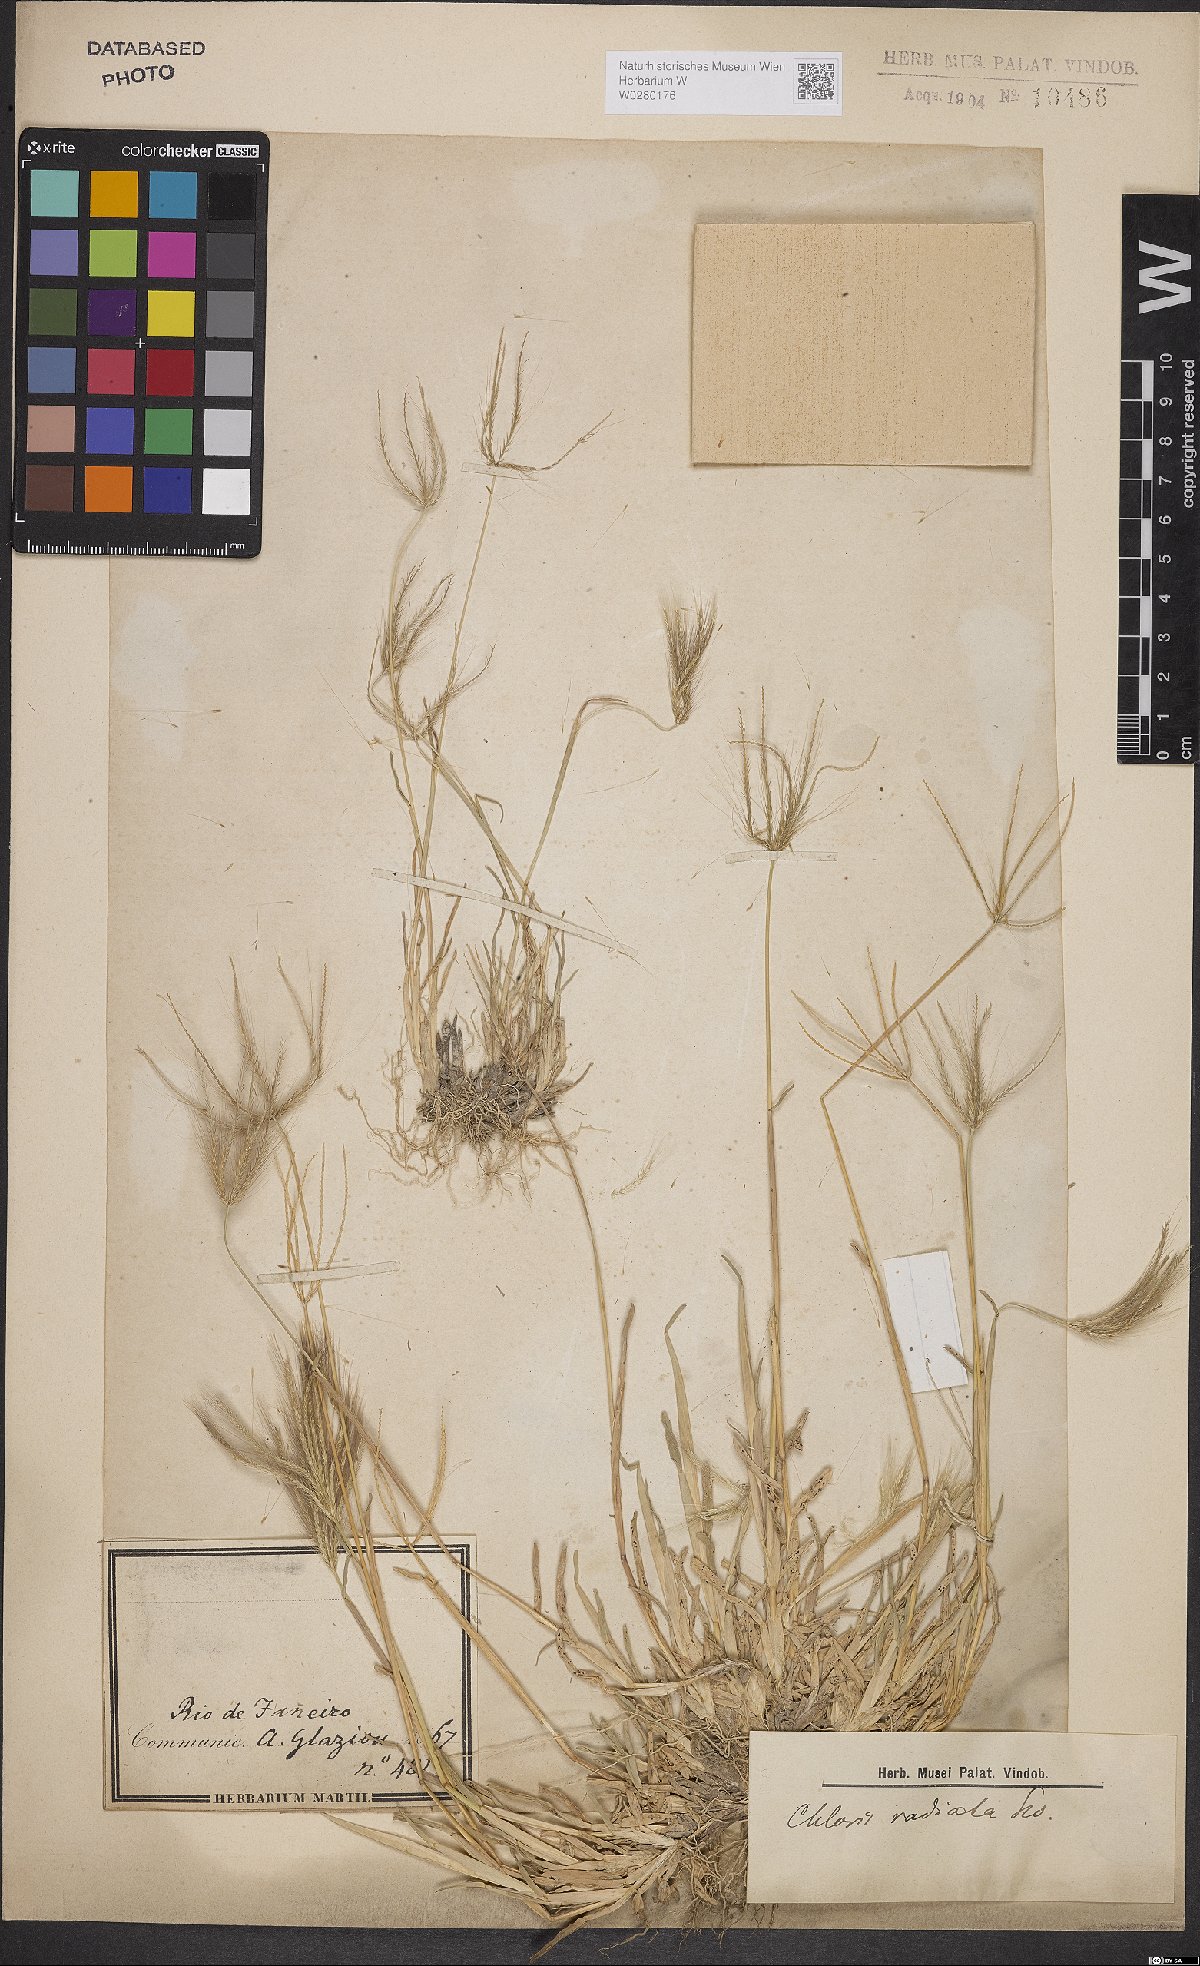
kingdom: Plantae
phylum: Tracheophyta
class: Liliopsida
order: Poales
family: Poaceae
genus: Chloris
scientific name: Chloris radiata
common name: Radiate fingergrass
